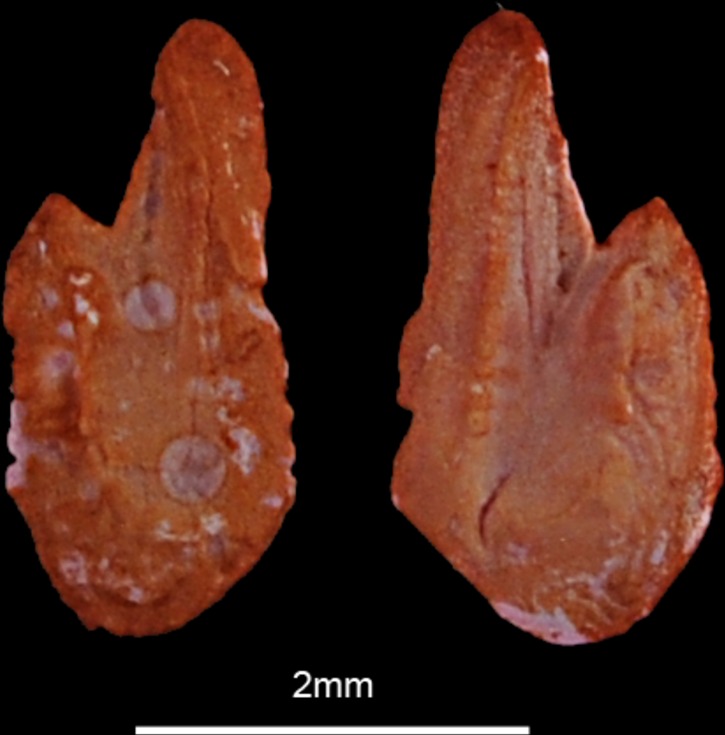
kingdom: Animalia
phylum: Chordata
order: Clupeiformes
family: Clupeidae
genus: Sardina
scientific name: Sardina pilchardus
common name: Pilchard
